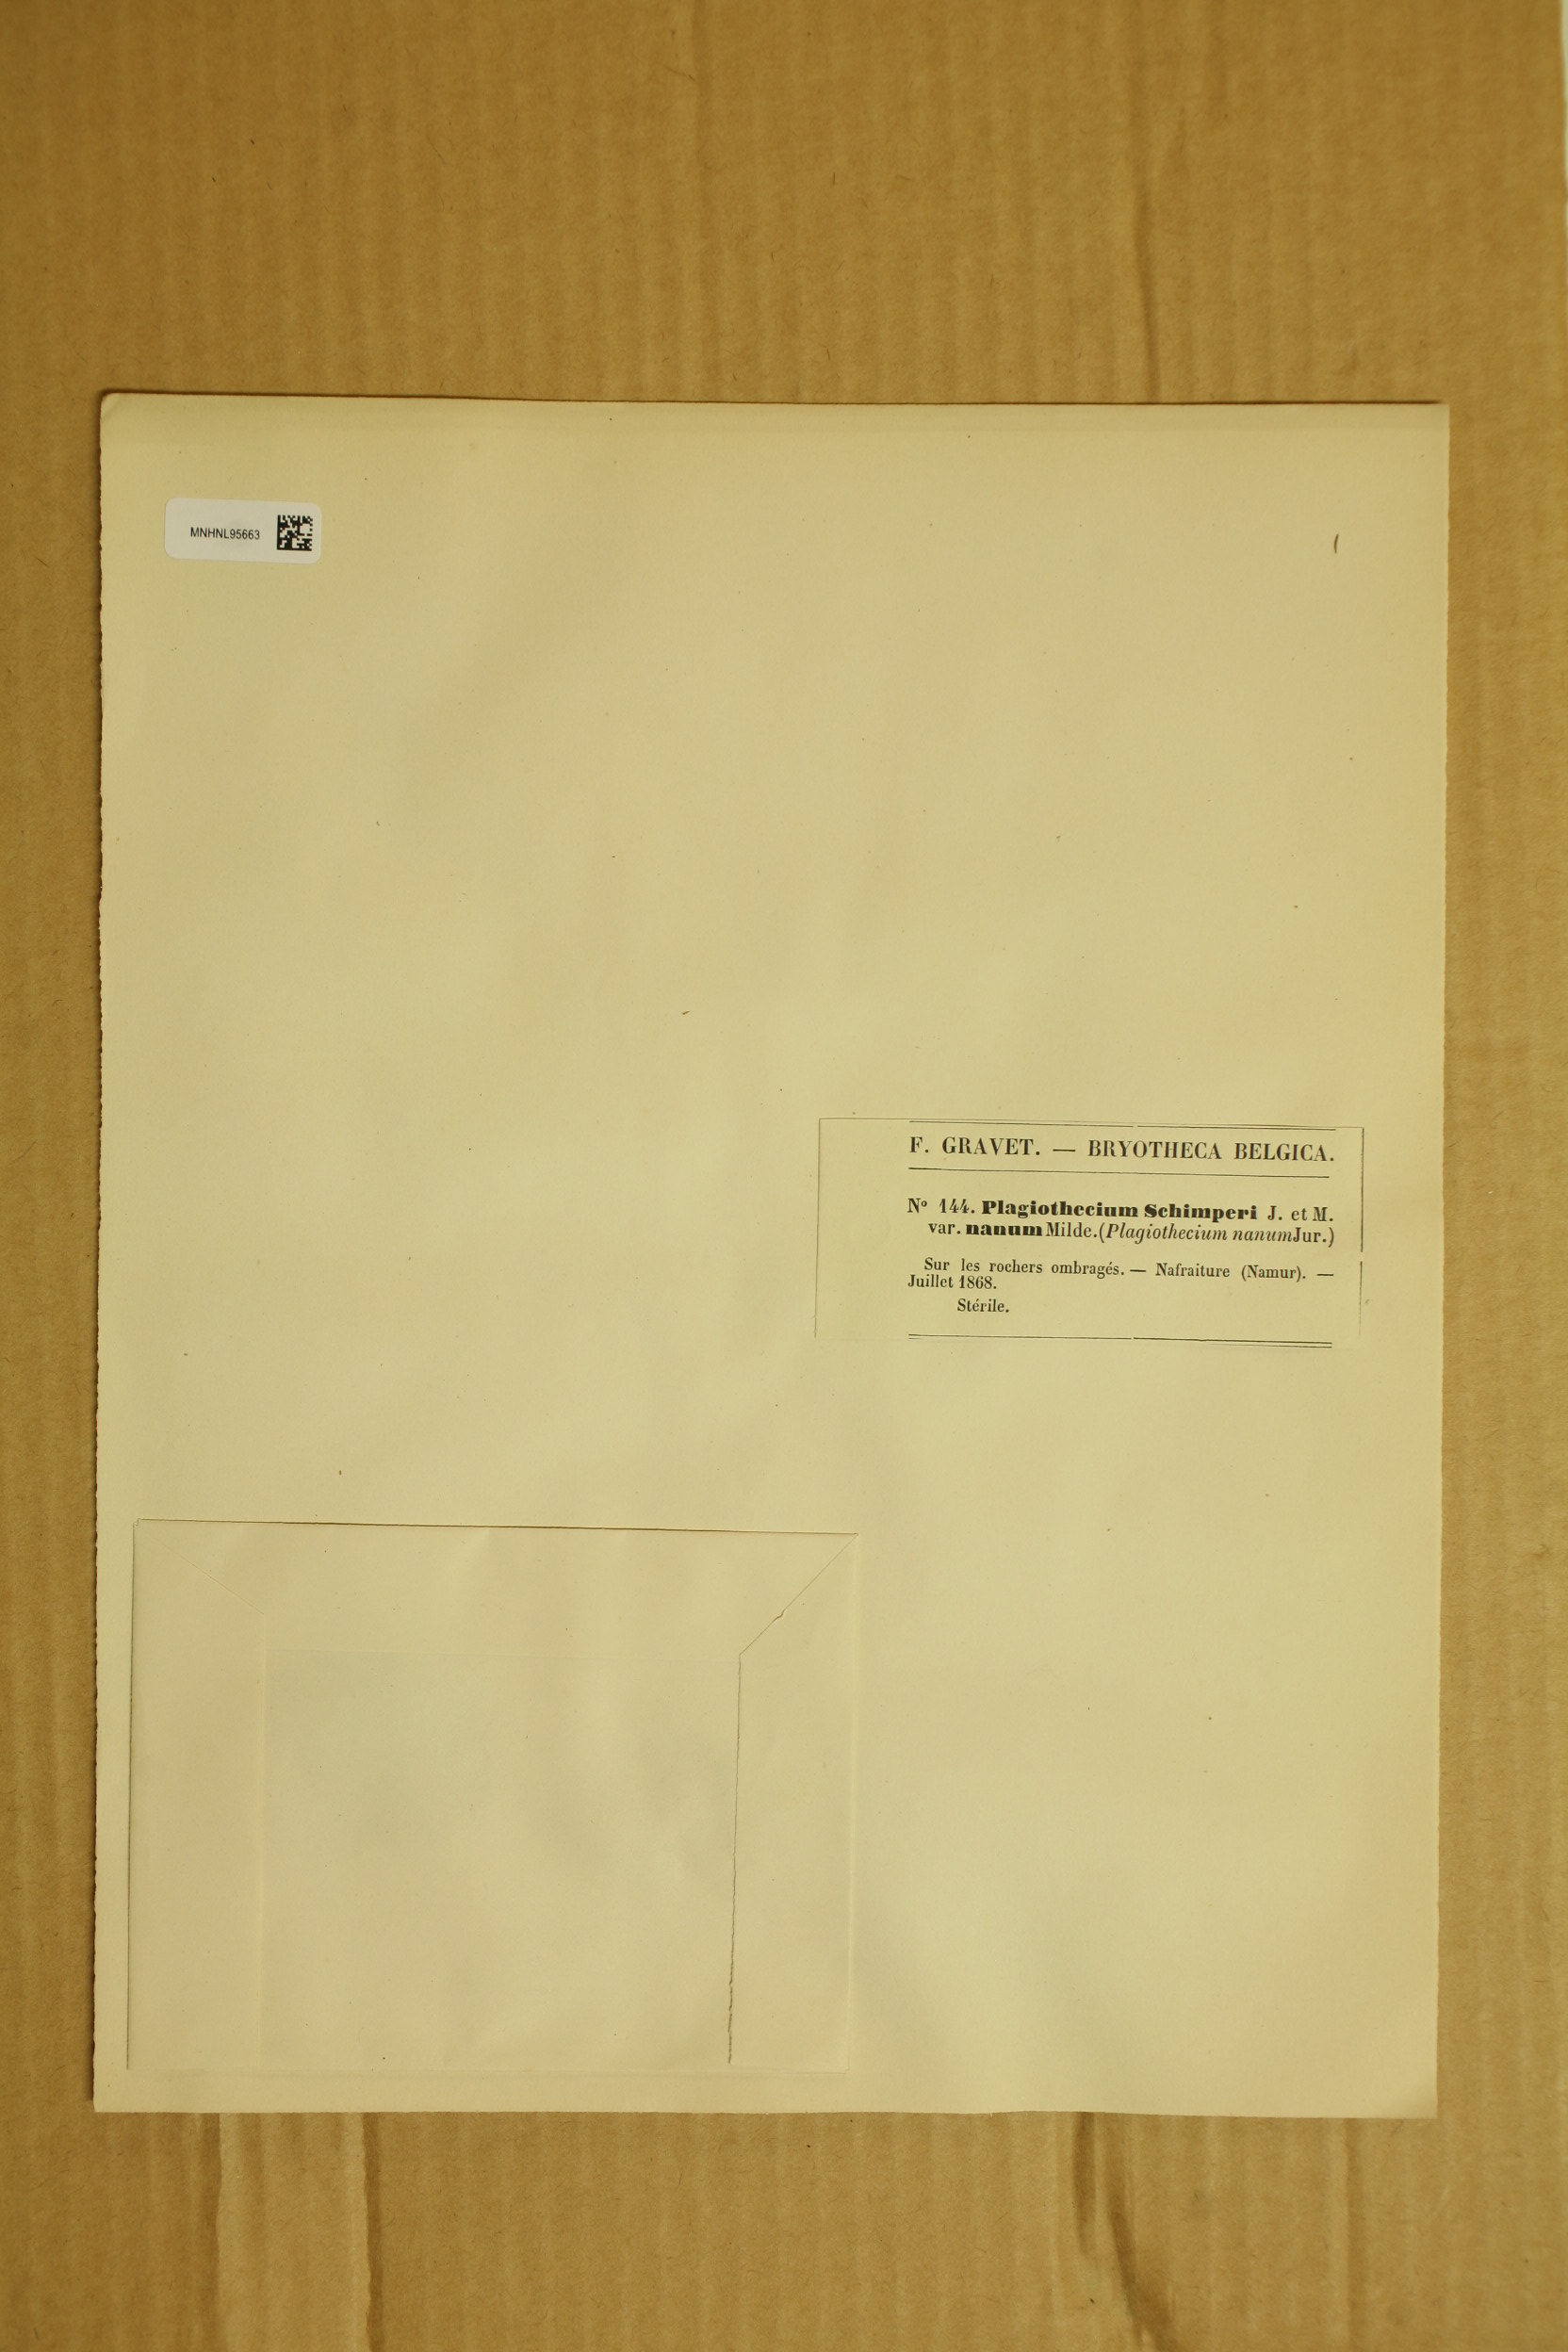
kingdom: Plantae
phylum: Bryophyta
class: Bryopsida
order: Hypnales
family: Plagiotheciaceae
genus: Pseudotaxiphyllum
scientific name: Pseudotaxiphyllum elegans
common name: Elegant silk moss
